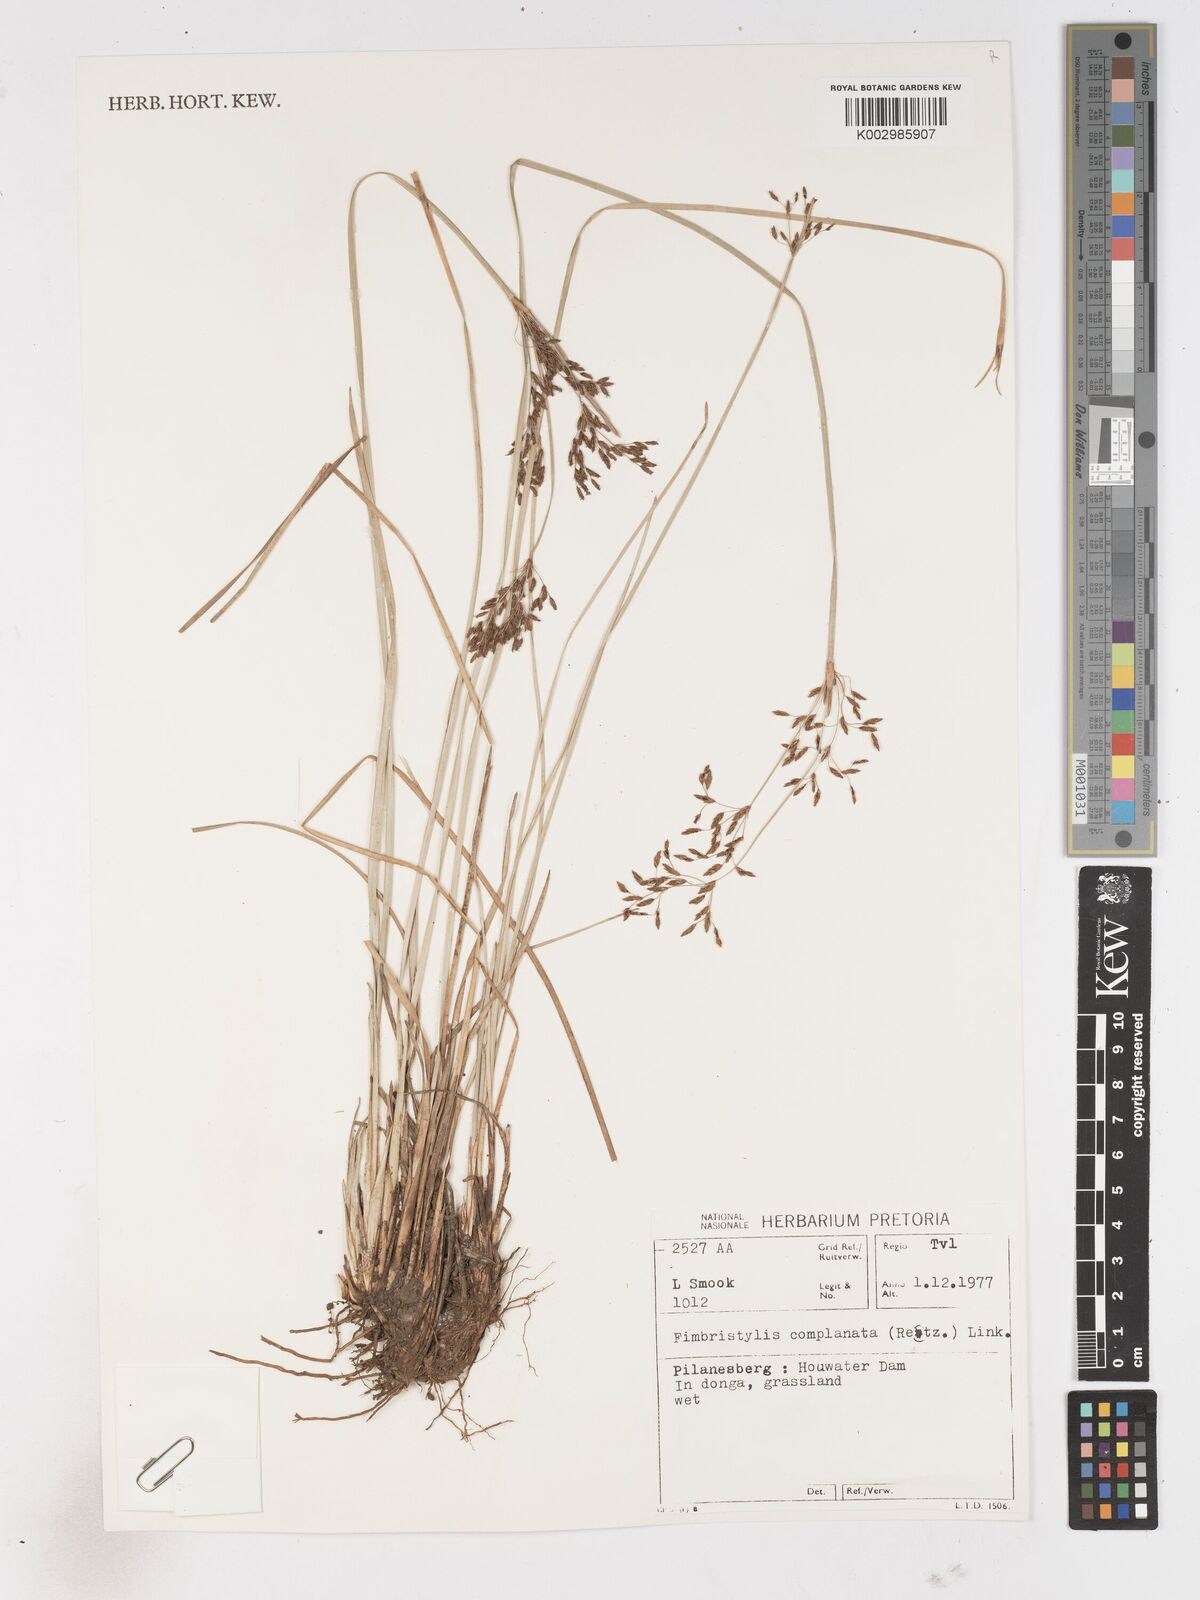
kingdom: Plantae
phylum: Tracheophyta
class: Liliopsida
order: Poales
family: Cyperaceae
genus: Fimbristylis
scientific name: Fimbristylis complanata
